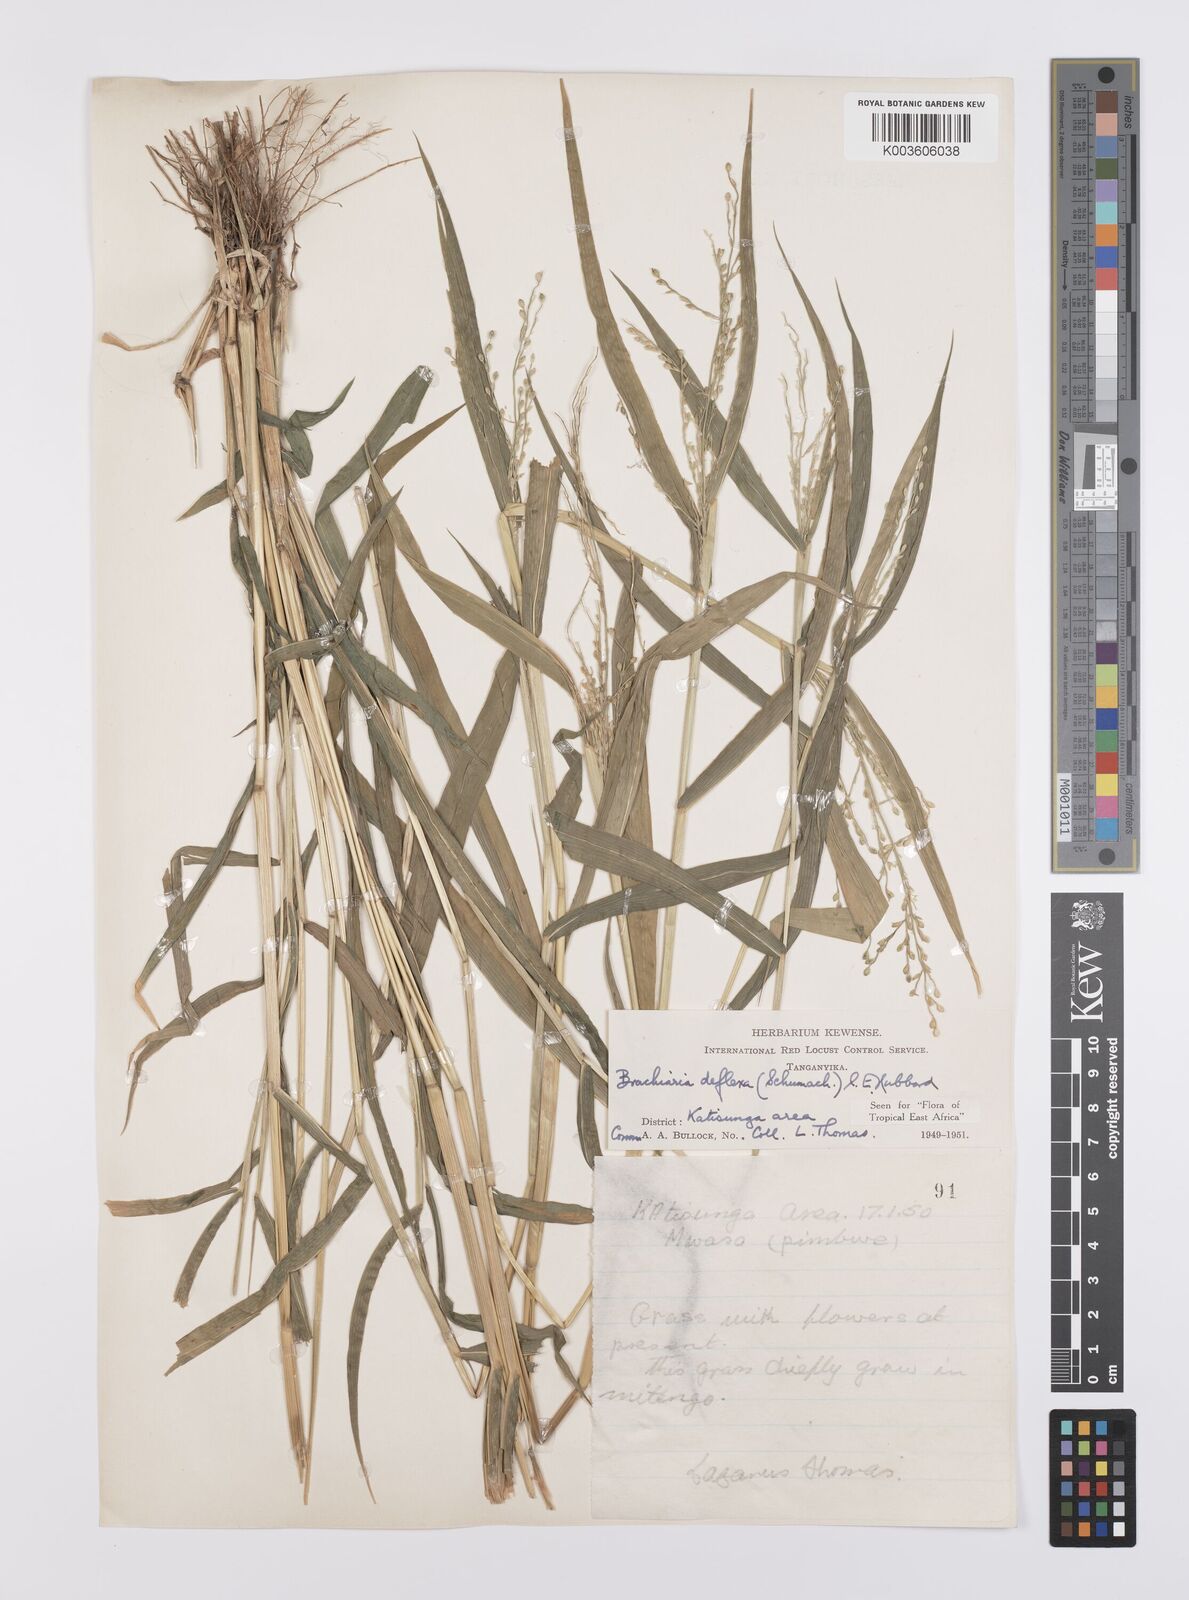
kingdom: Plantae
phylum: Tracheophyta
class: Liliopsida
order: Poales
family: Poaceae
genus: Urochloa
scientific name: Urochloa deflexa
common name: Guinea millet
